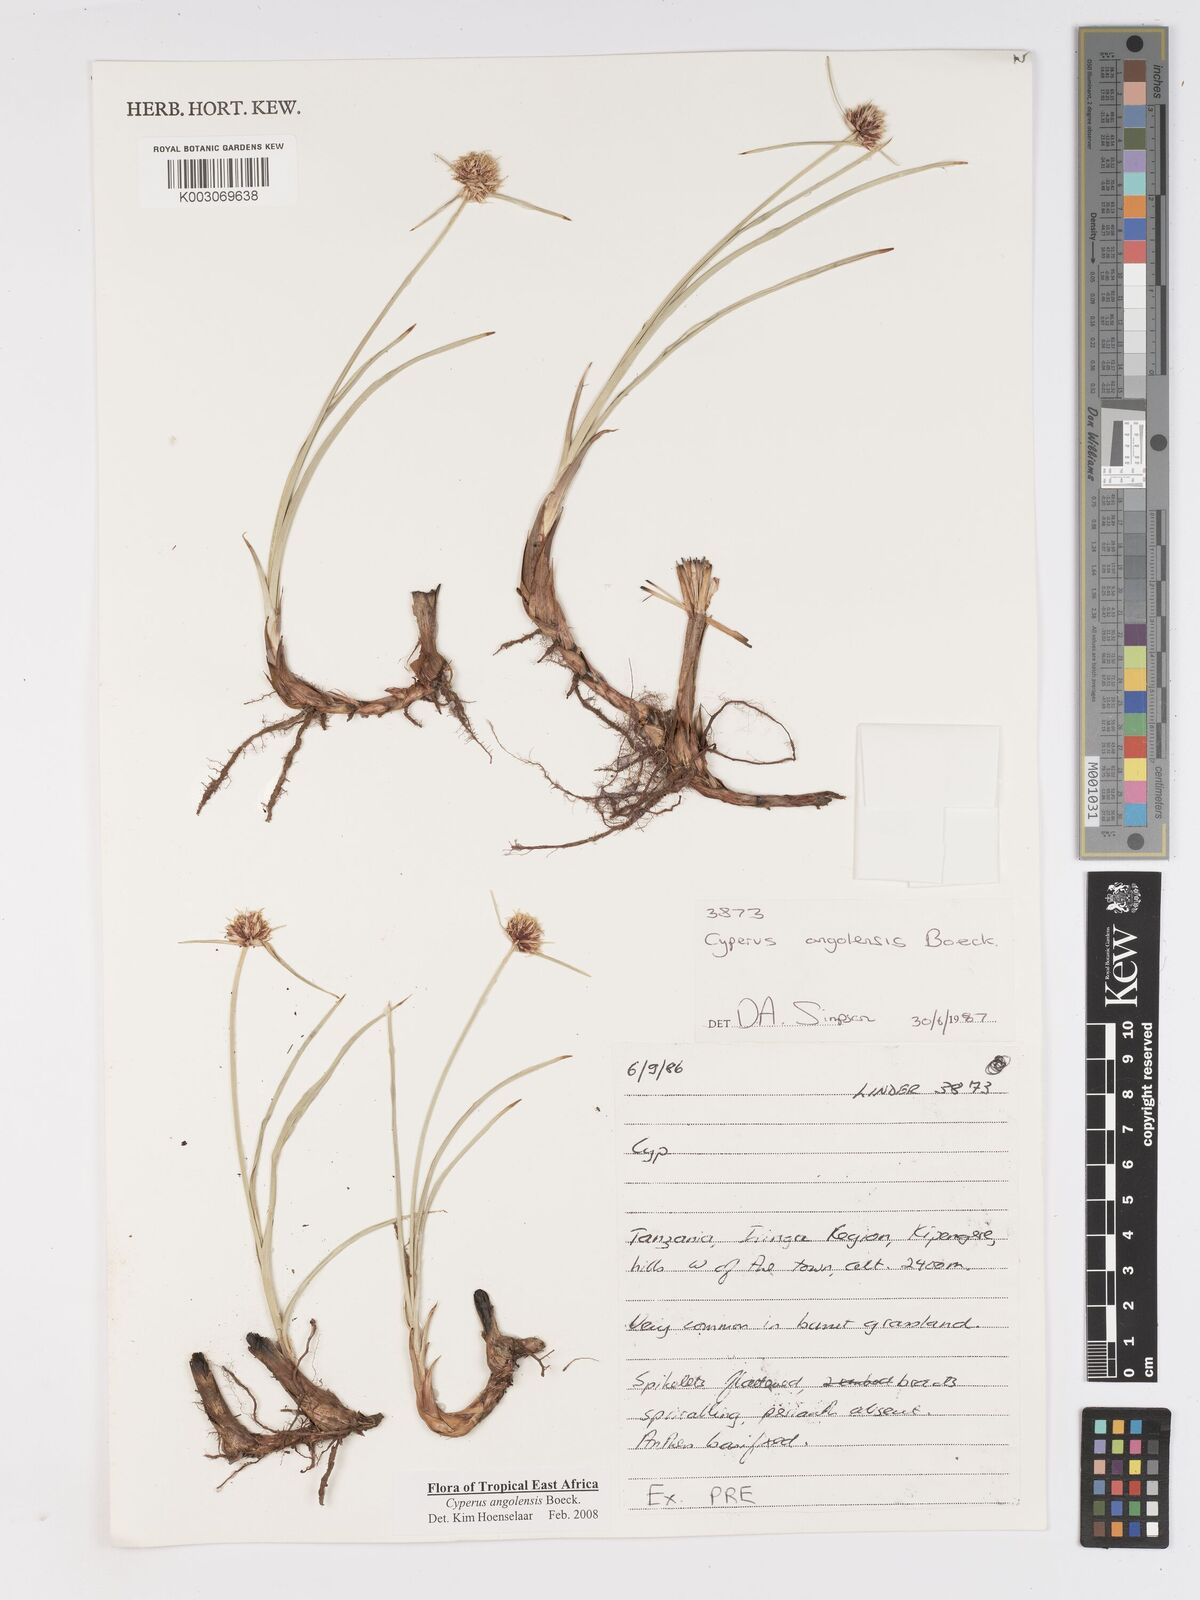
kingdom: Plantae
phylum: Tracheophyta
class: Liliopsida
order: Poales
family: Cyperaceae
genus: Cyperus
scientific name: Cyperus angolensis
